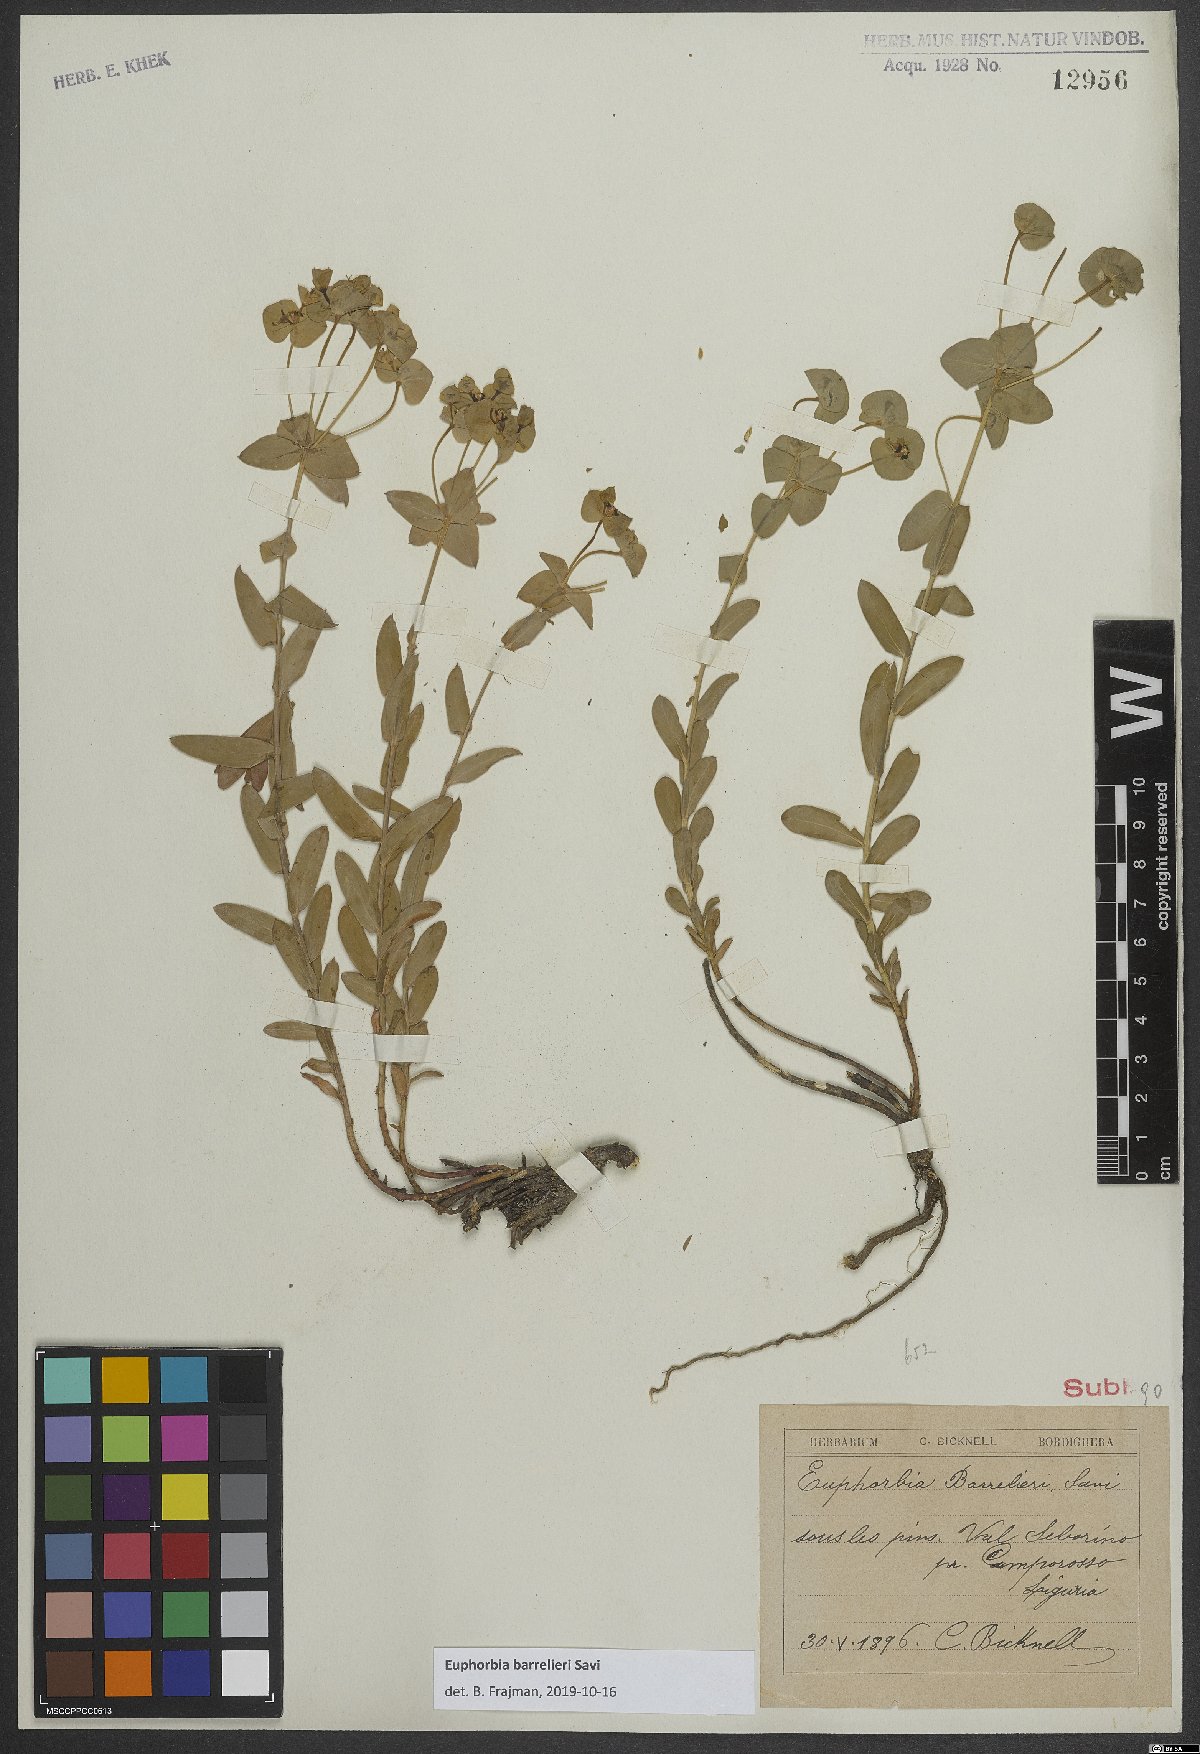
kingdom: Plantae
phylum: Tracheophyta
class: Magnoliopsida
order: Malpighiales
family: Euphorbiaceae
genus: Euphorbia
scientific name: Euphorbia
